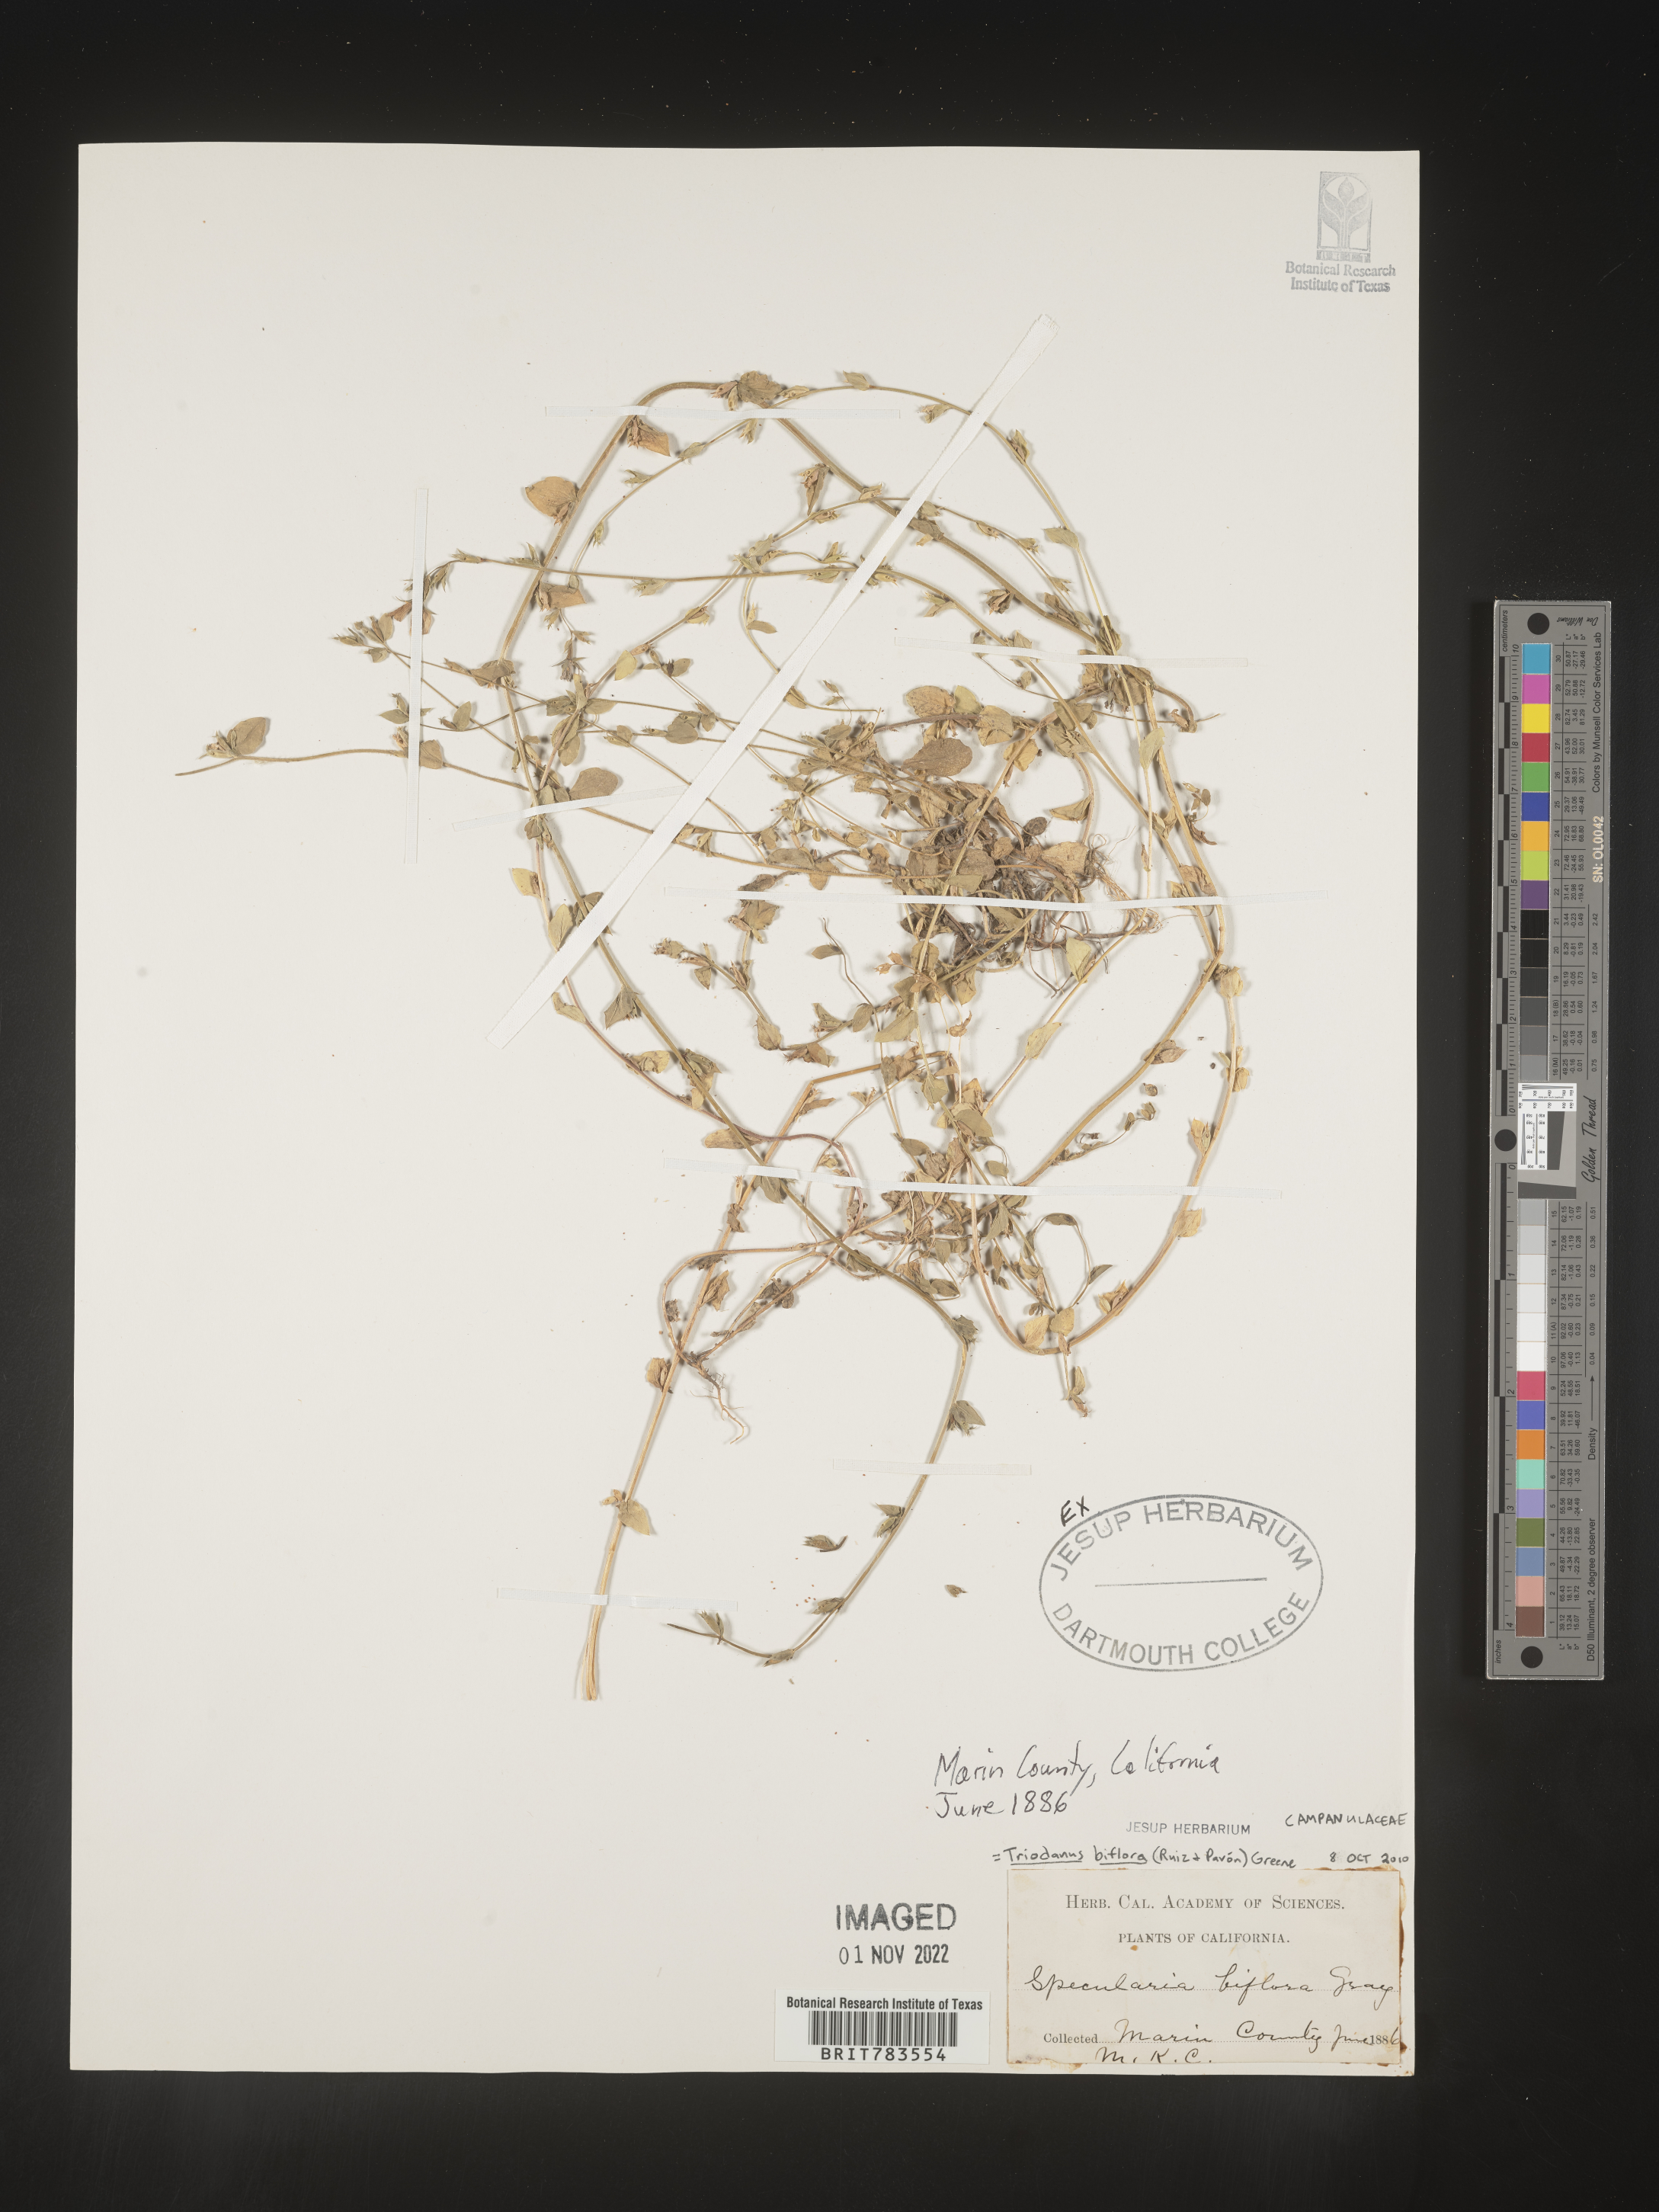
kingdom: Plantae
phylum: Tracheophyta
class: Magnoliopsida
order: Asterales
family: Campanulaceae
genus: Triodanis
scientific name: Triodanis perfoliata
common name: Clasping venus' looking-glass
